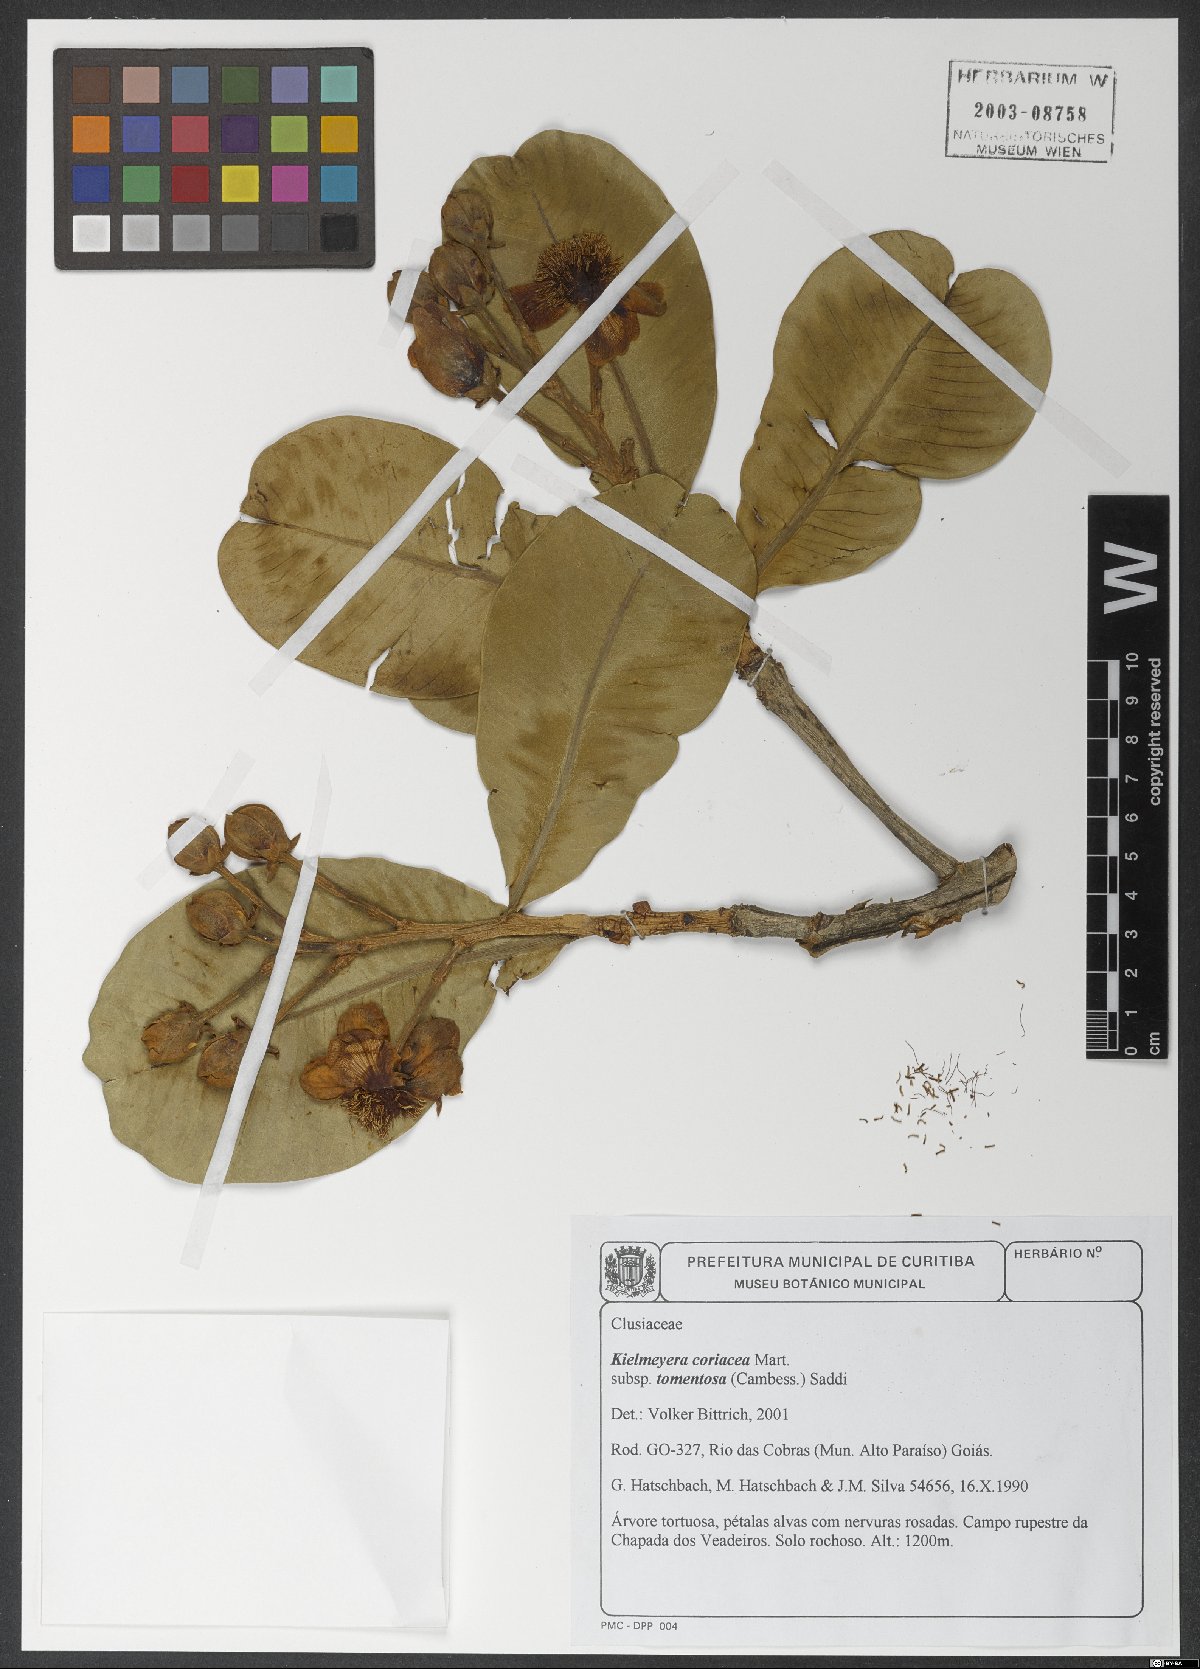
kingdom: Plantae
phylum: Tracheophyta
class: Magnoliopsida
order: Malpighiales
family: Calophyllaceae
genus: Kielmeyera
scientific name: Kielmeyera coriacea
